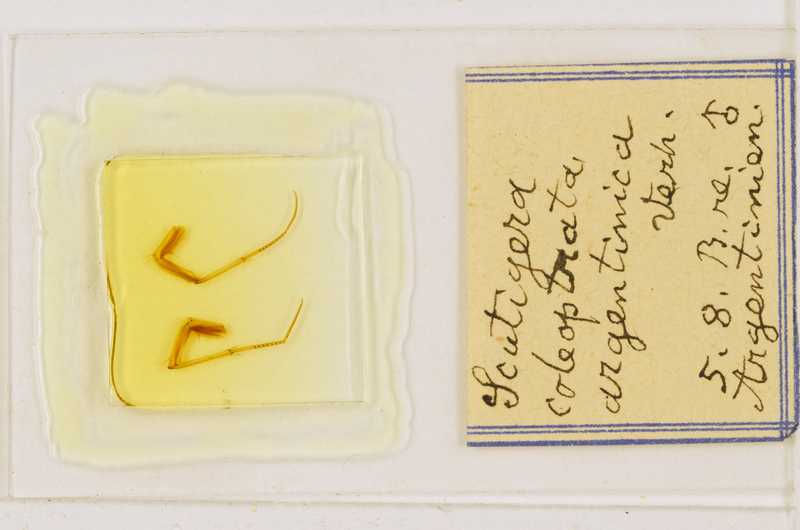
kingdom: Animalia
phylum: Arthropoda
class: Chilopoda
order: Scutigeromorpha
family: Scutigeridae
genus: Scutigera
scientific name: Scutigera coleoptrata
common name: House centipede
